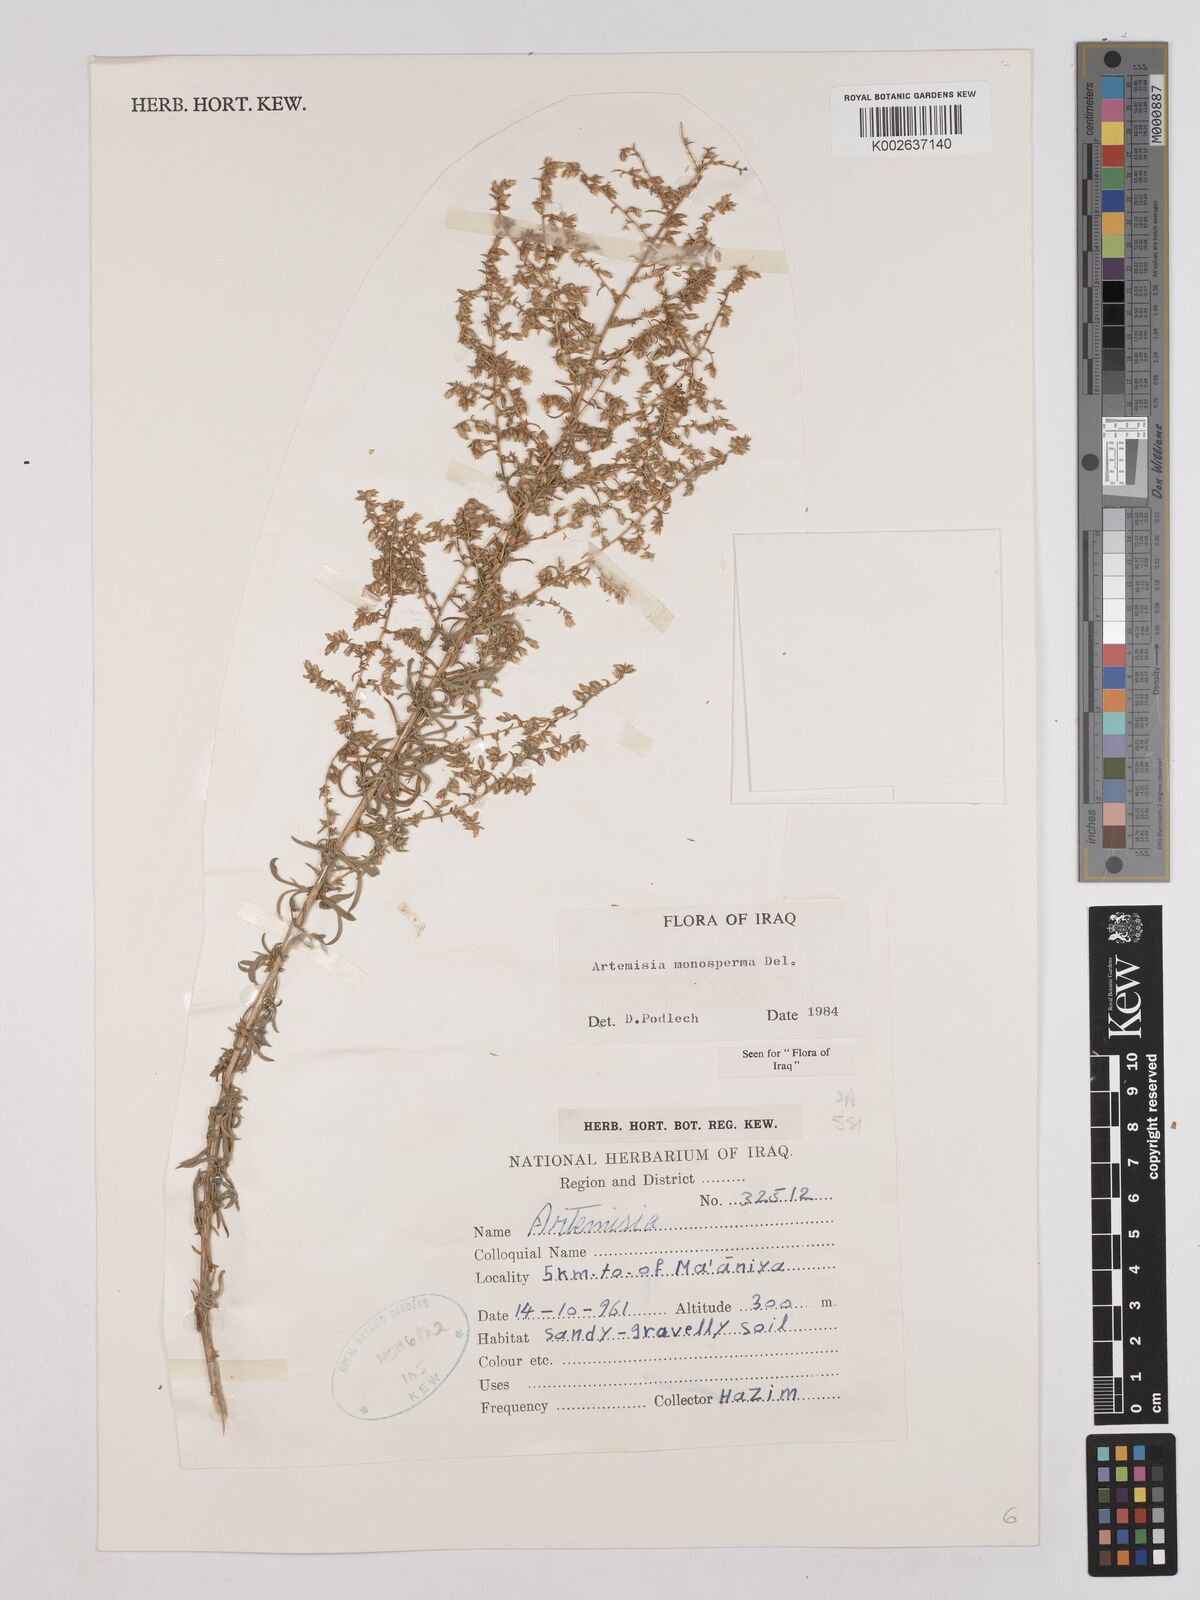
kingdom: Plantae
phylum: Tracheophyta
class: Magnoliopsida
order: Asterales
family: Asteraceae
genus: Artemisia
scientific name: Artemisia monosperma
